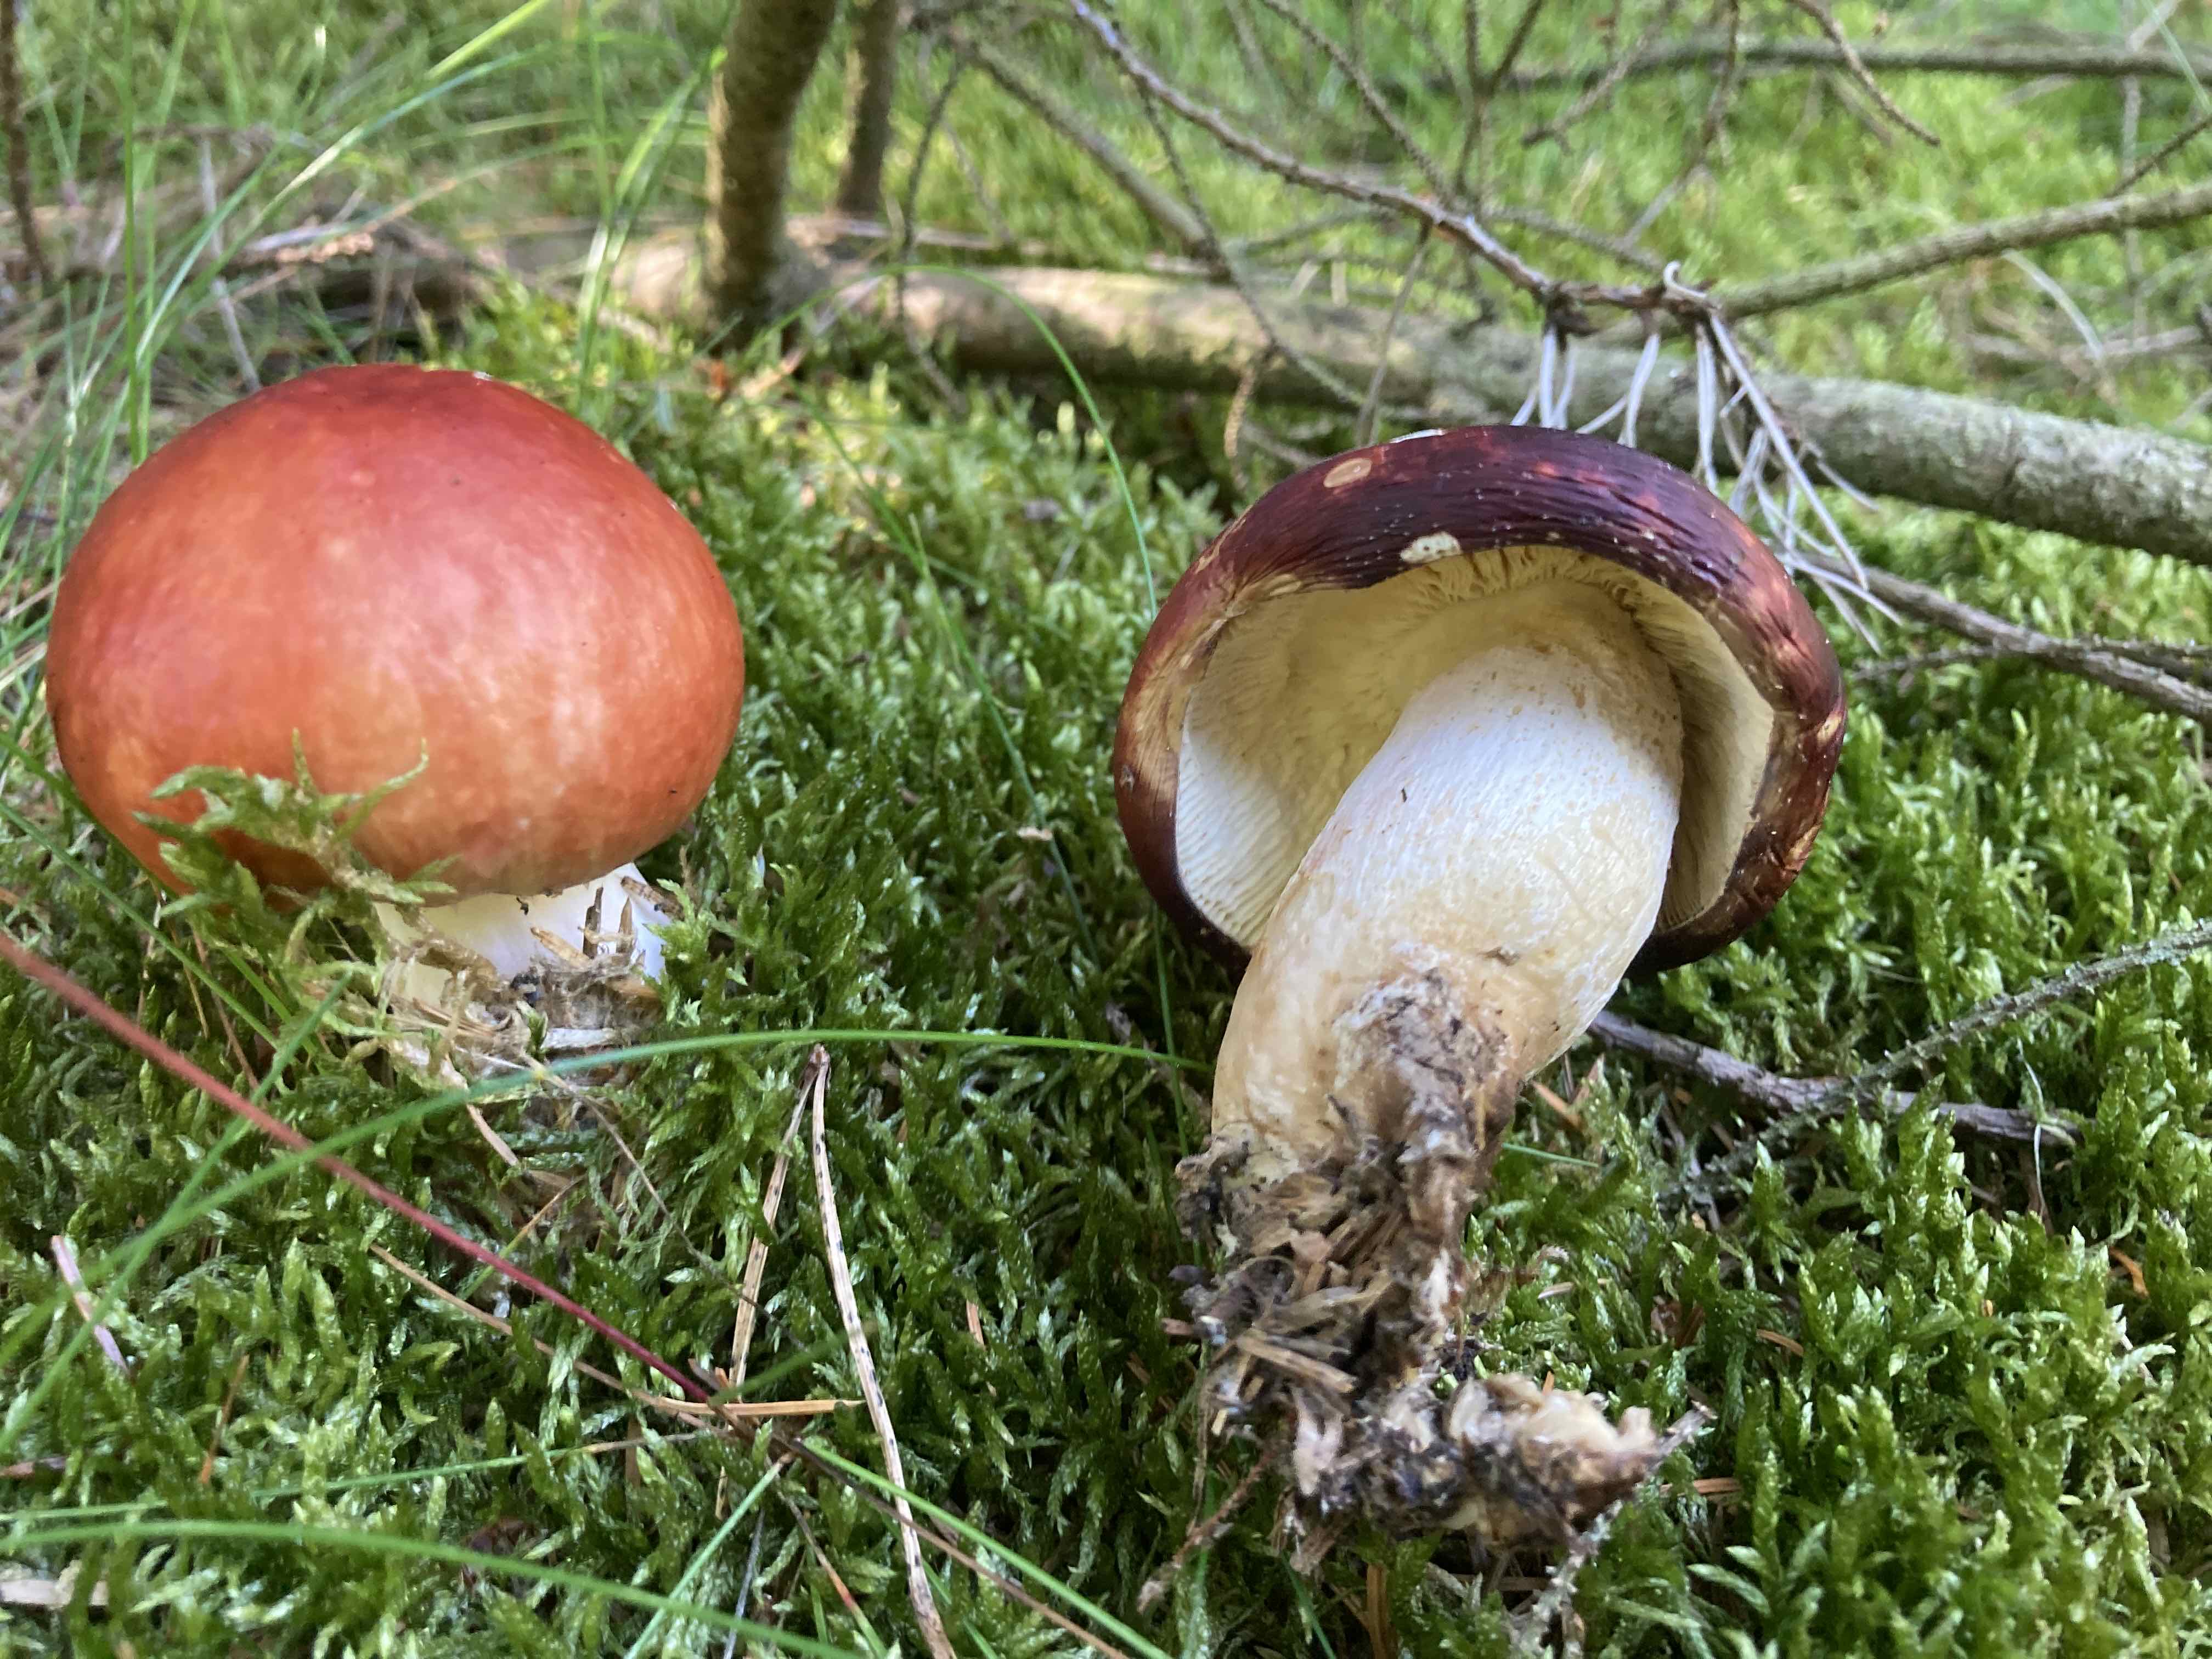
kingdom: Fungi
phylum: Basidiomycota
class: Agaricomycetes
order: Russulales
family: Russulaceae
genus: Russula
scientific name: Russula paludosa
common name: prægtig skørhat
